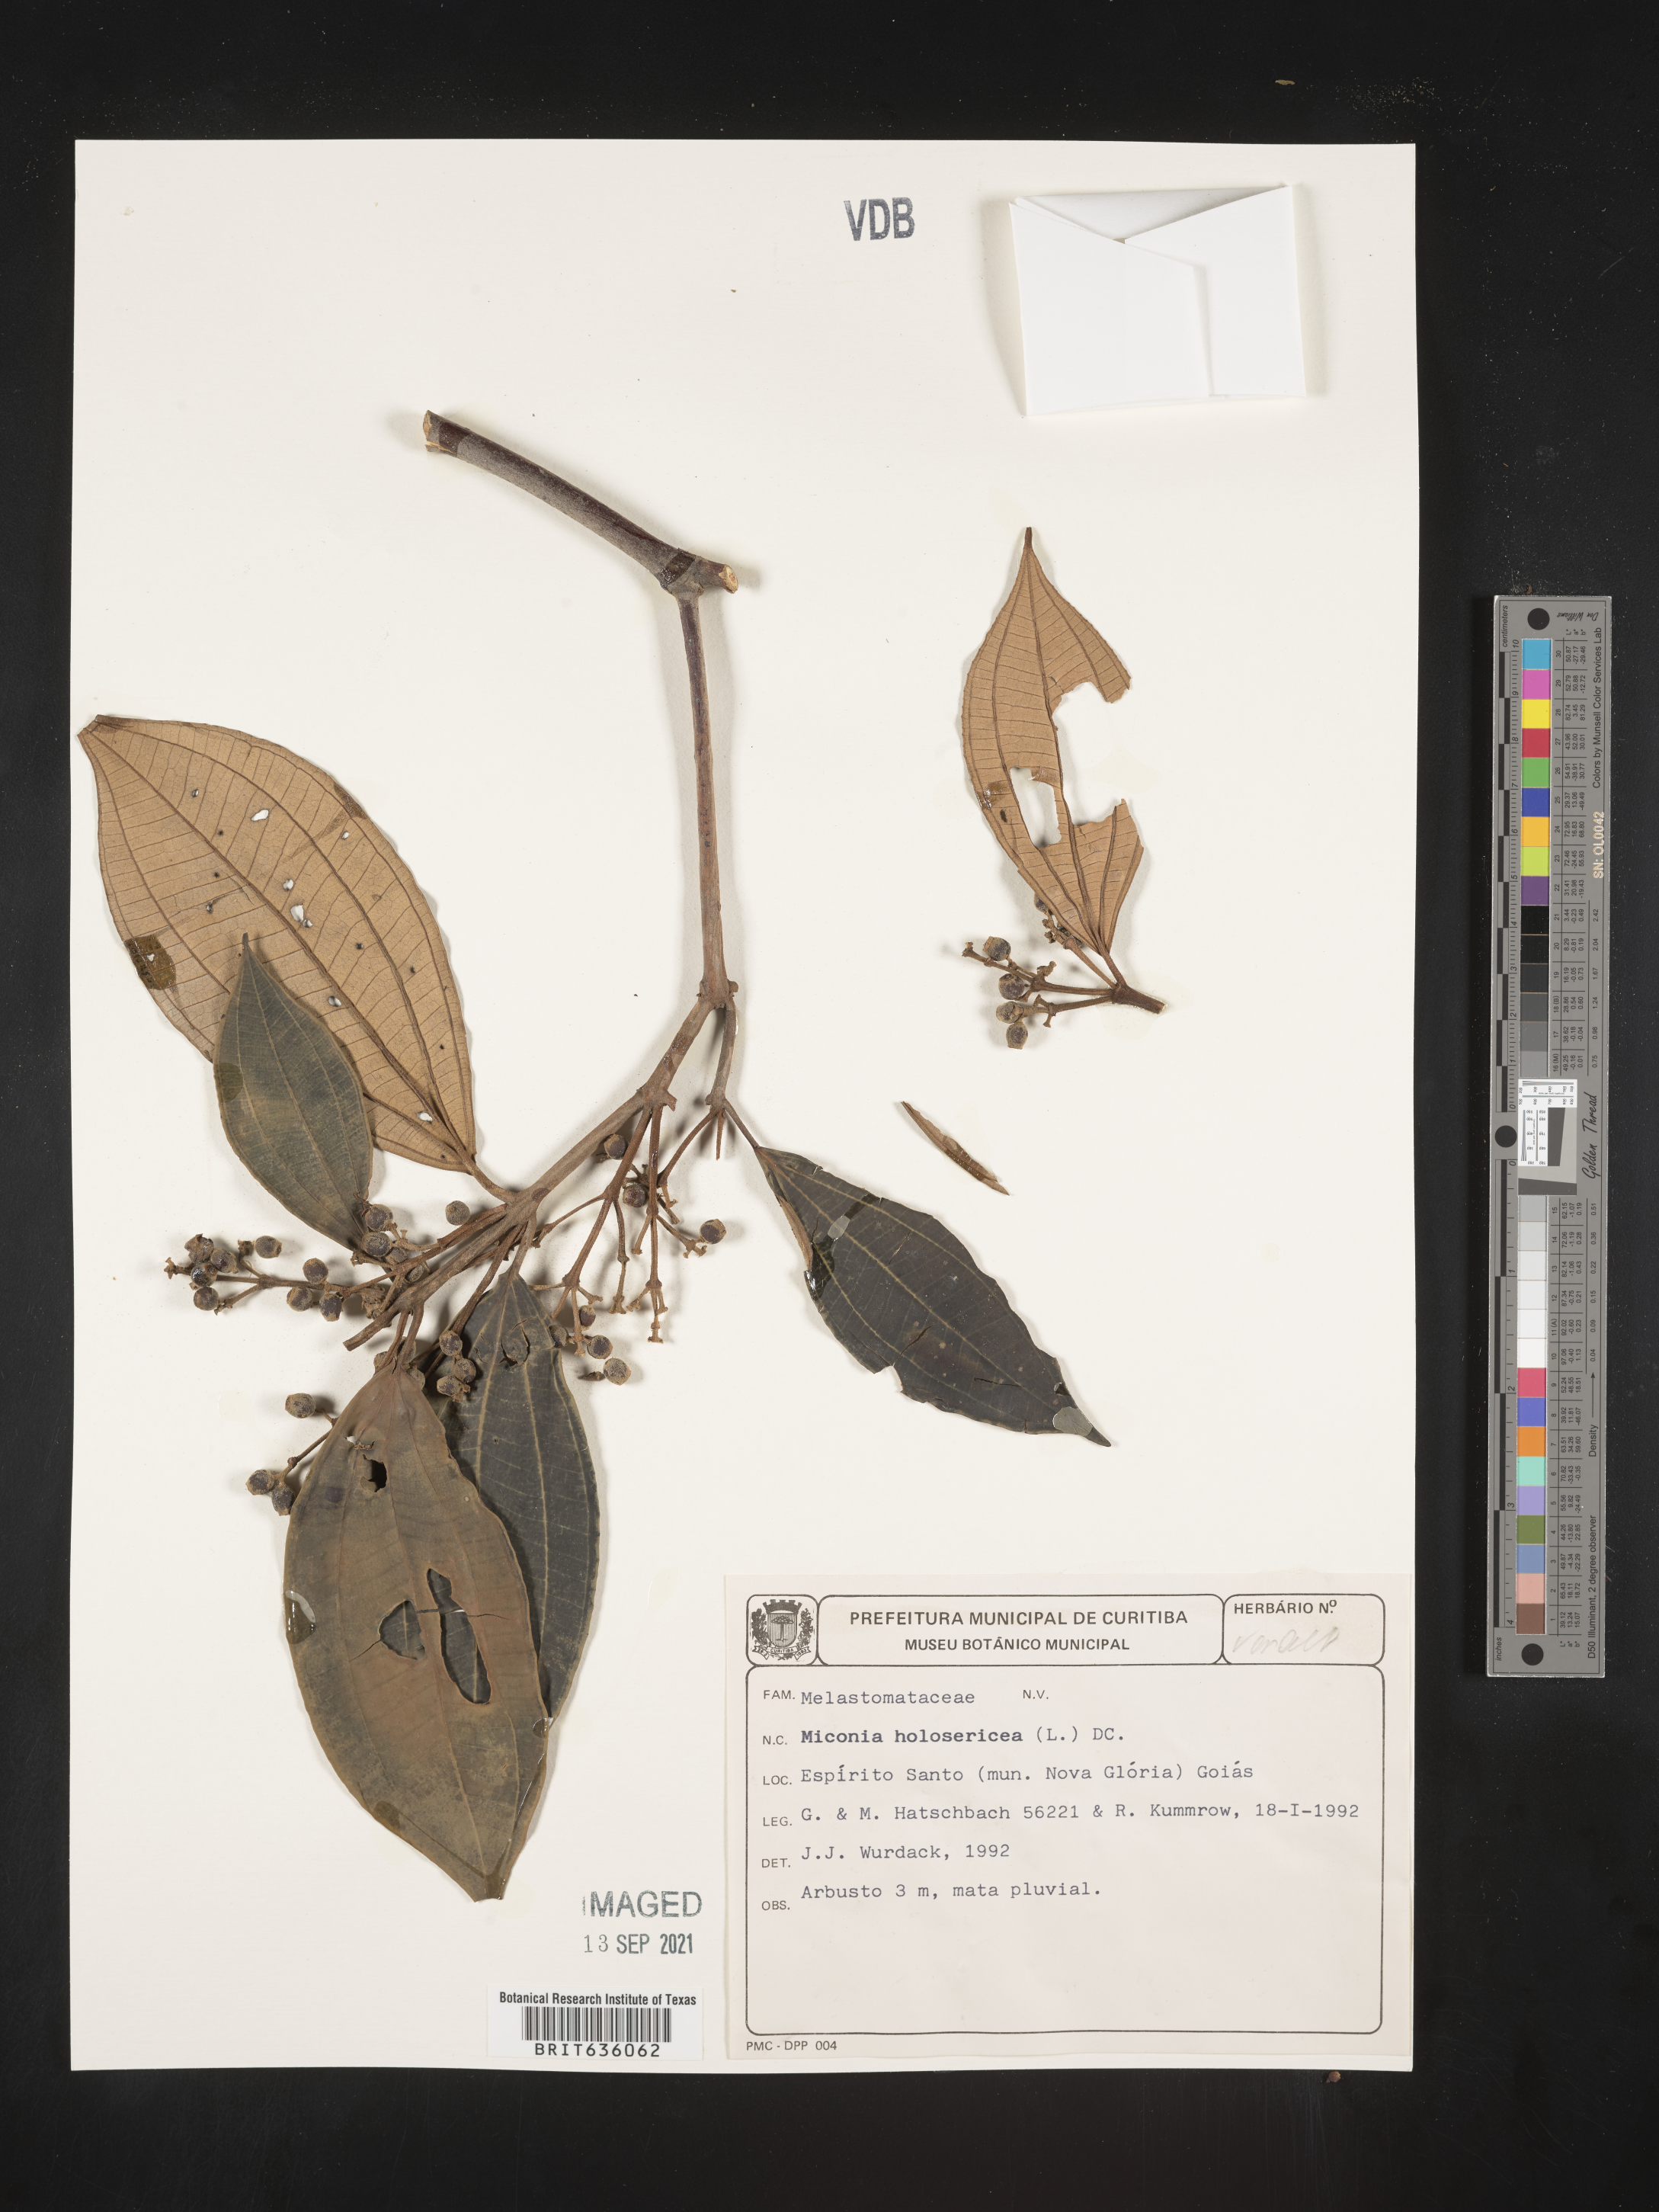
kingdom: Plantae
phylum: Tracheophyta
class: Magnoliopsida
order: Myrtales
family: Melastomataceae
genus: Miconia
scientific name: Miconia
